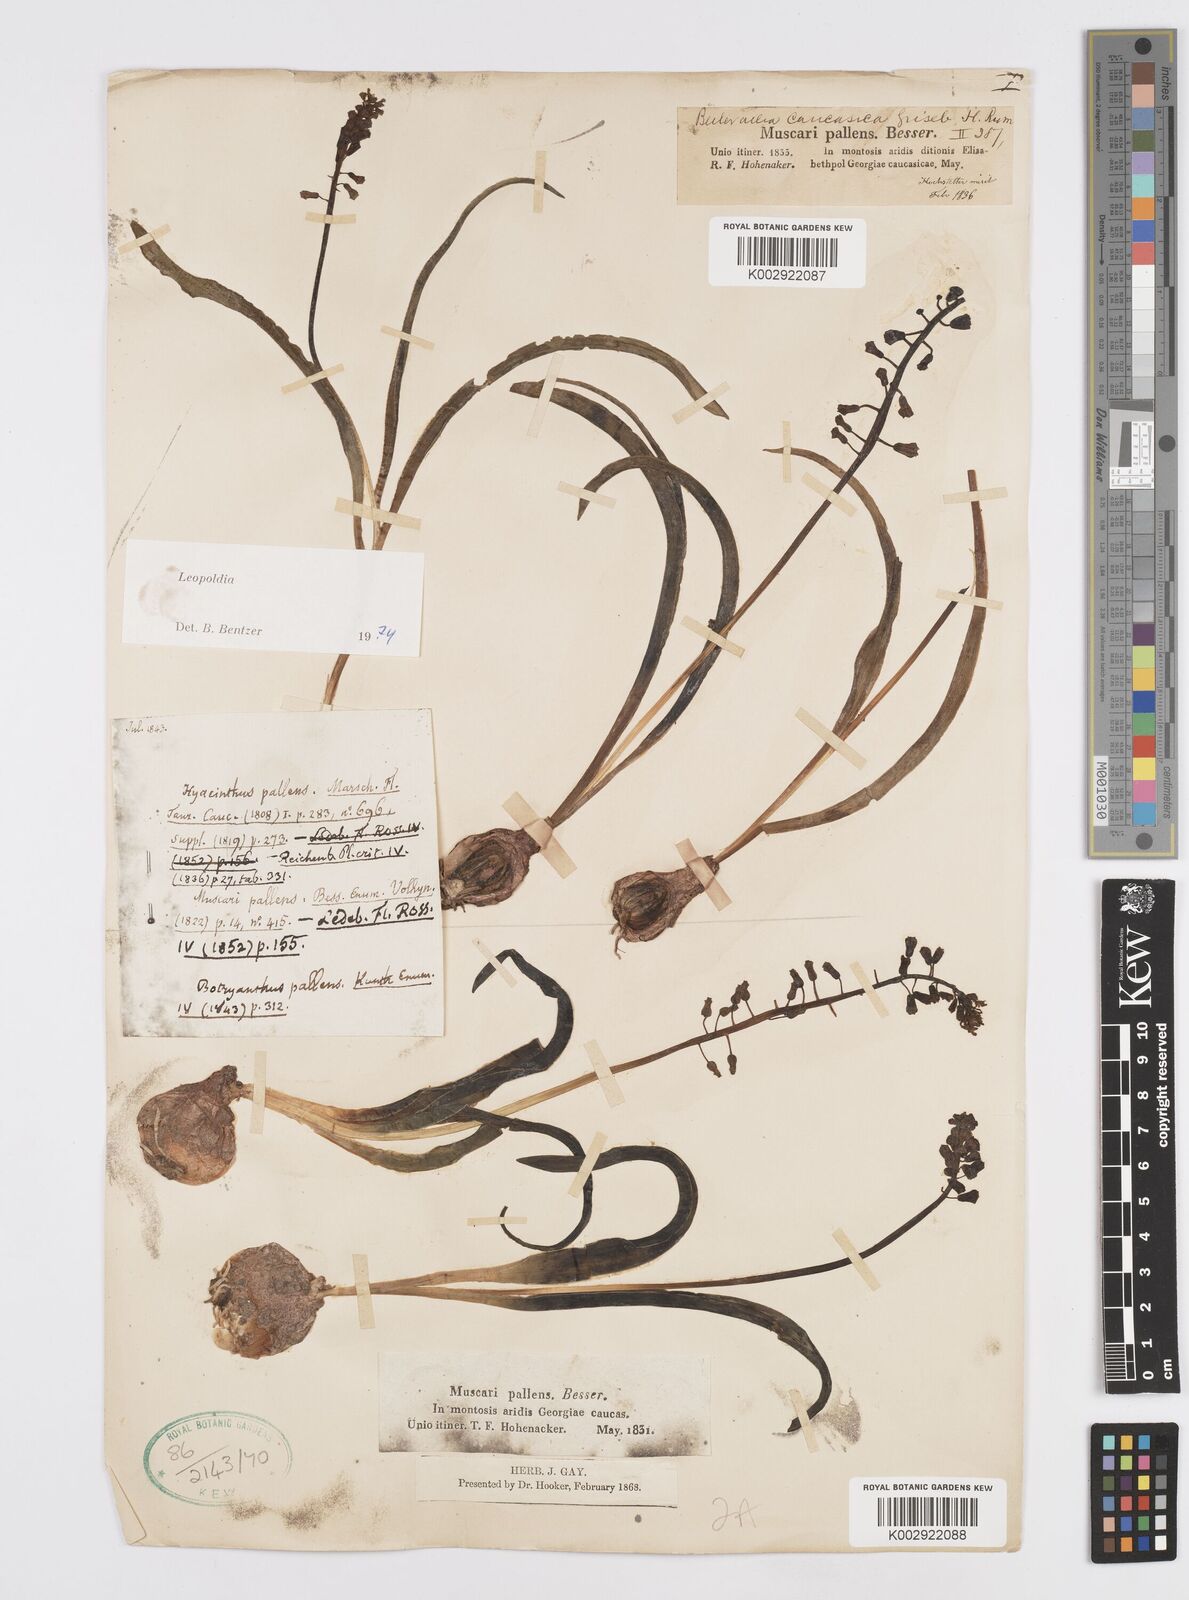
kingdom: Plantae
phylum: Tracheophyta
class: Liliopsida
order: Asparagales
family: Asparagaceae
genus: Muscari
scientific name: Muscari caucasicum
